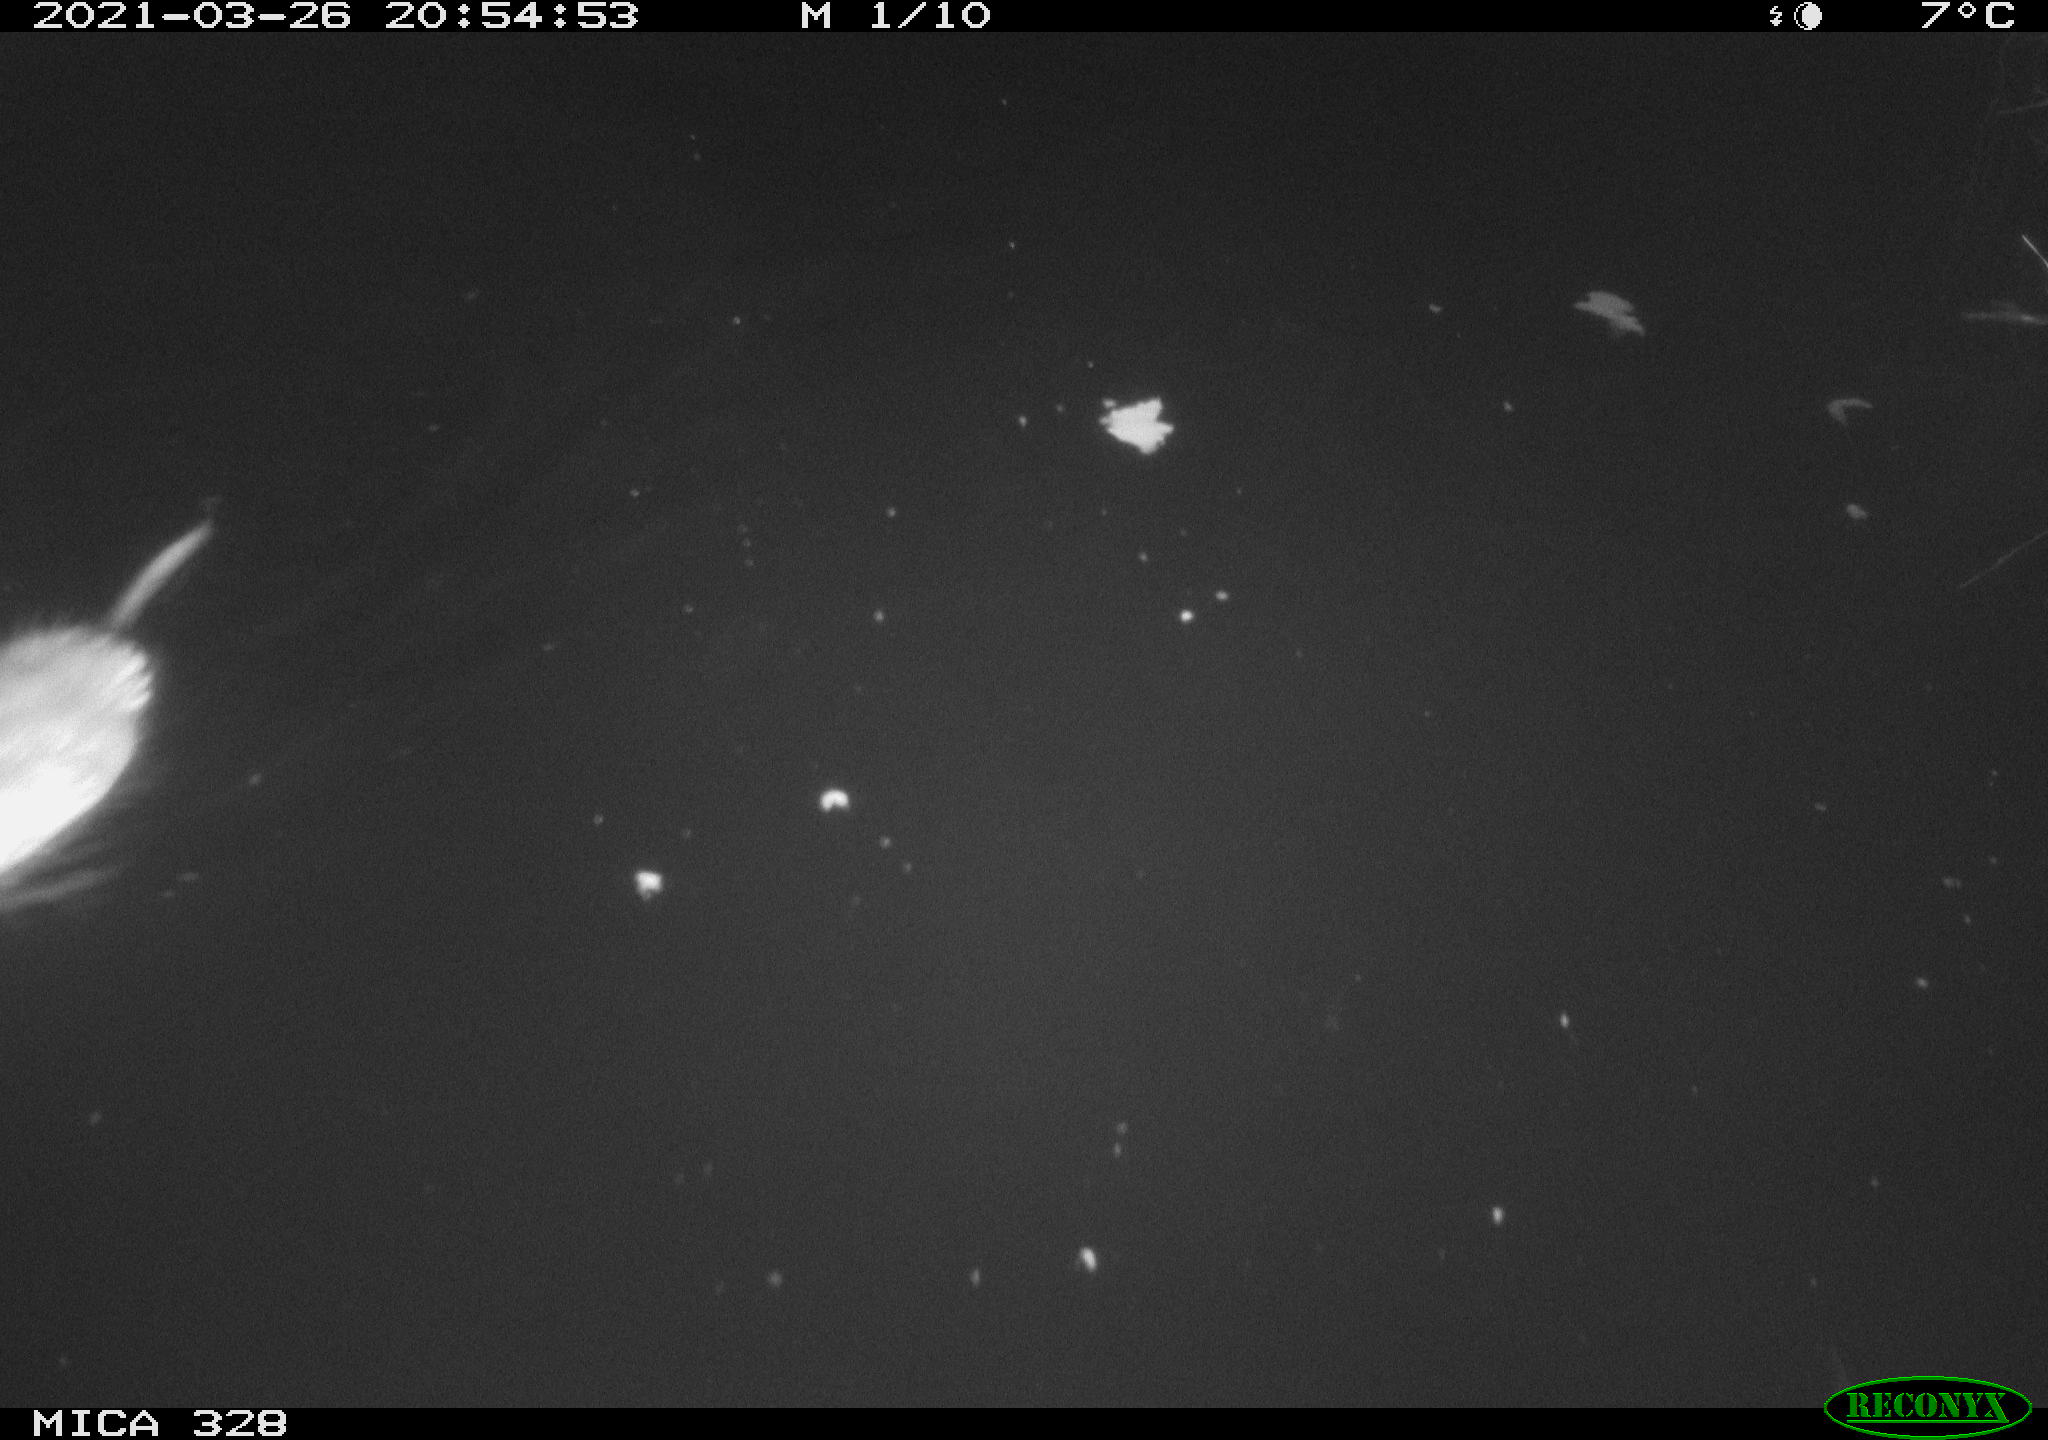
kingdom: Animalia
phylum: Chordata
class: Mammalia
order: Rodentia
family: Cricetidae
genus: Ondatra
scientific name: Ondatra zibethicus
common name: Muskrat
